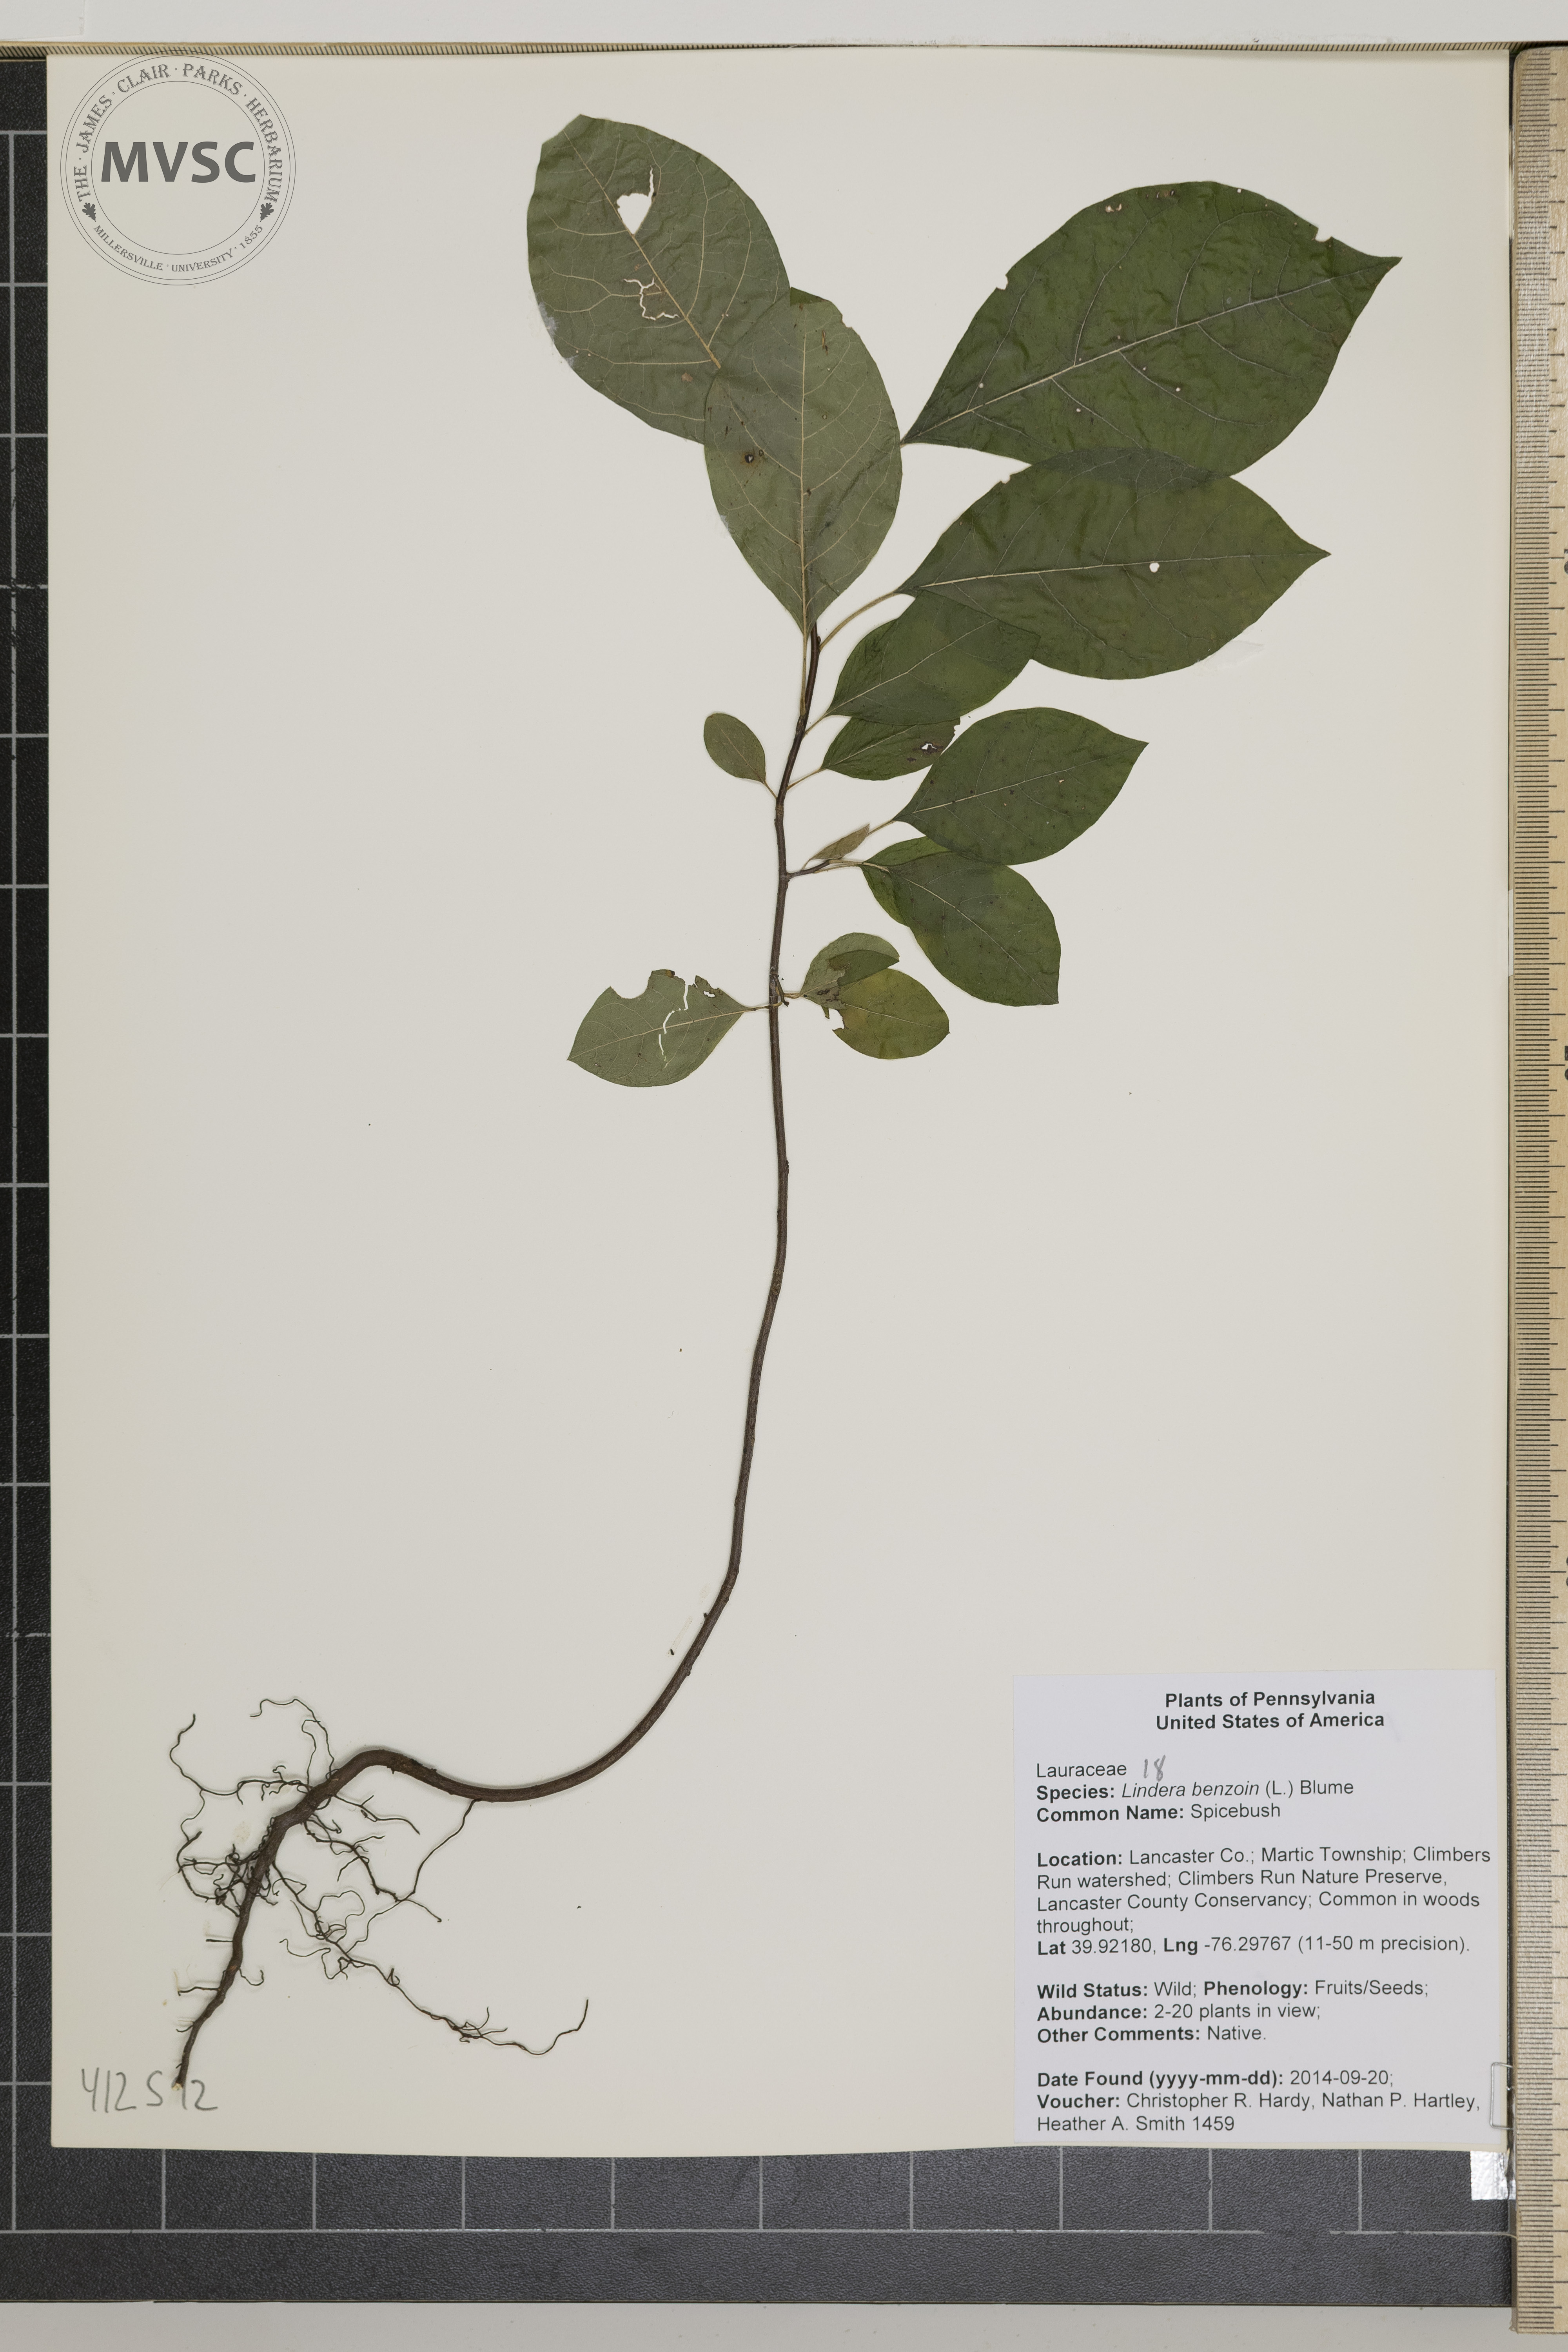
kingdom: Plantae
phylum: Tracheophyta
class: Magnoliopsida
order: Laurales
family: Lauraceae
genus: Lindera
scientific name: Lindera benzoin
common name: Northern spicebush
